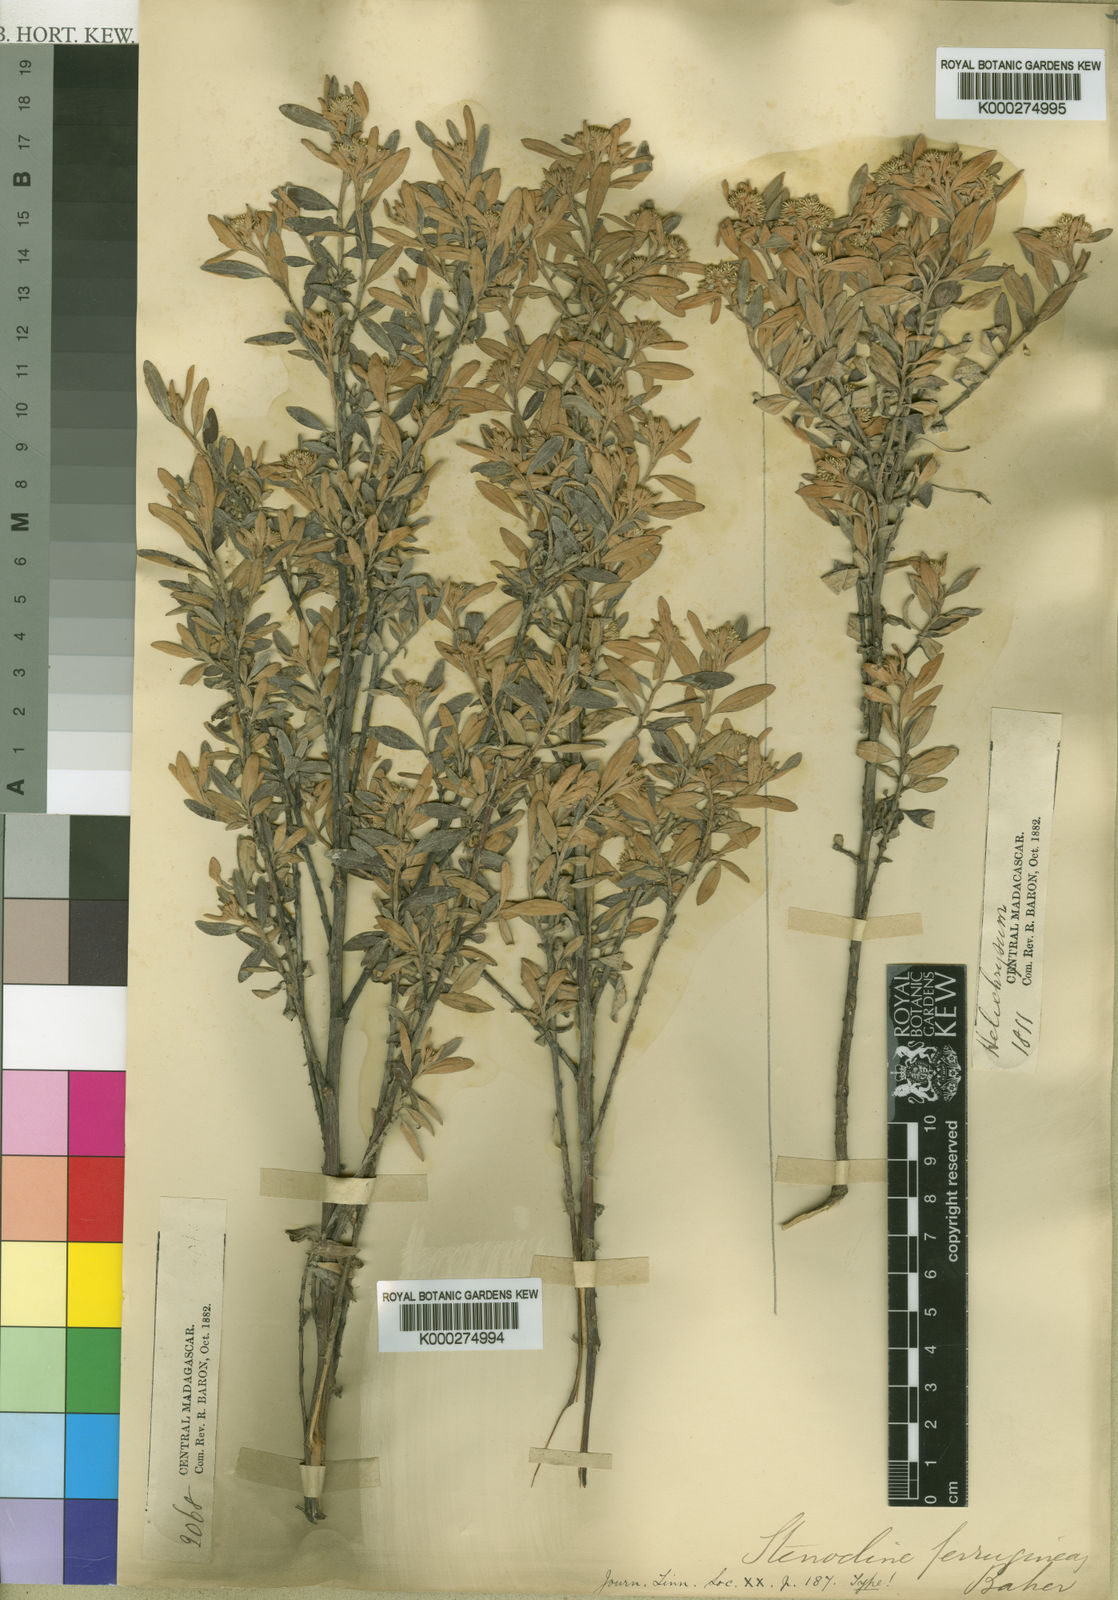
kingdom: Plantae
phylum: Tracheophyta
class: Magnoliopsida
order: Asterales
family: Asteraceae
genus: Helichrysum
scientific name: Helichrysum myriocephalum
